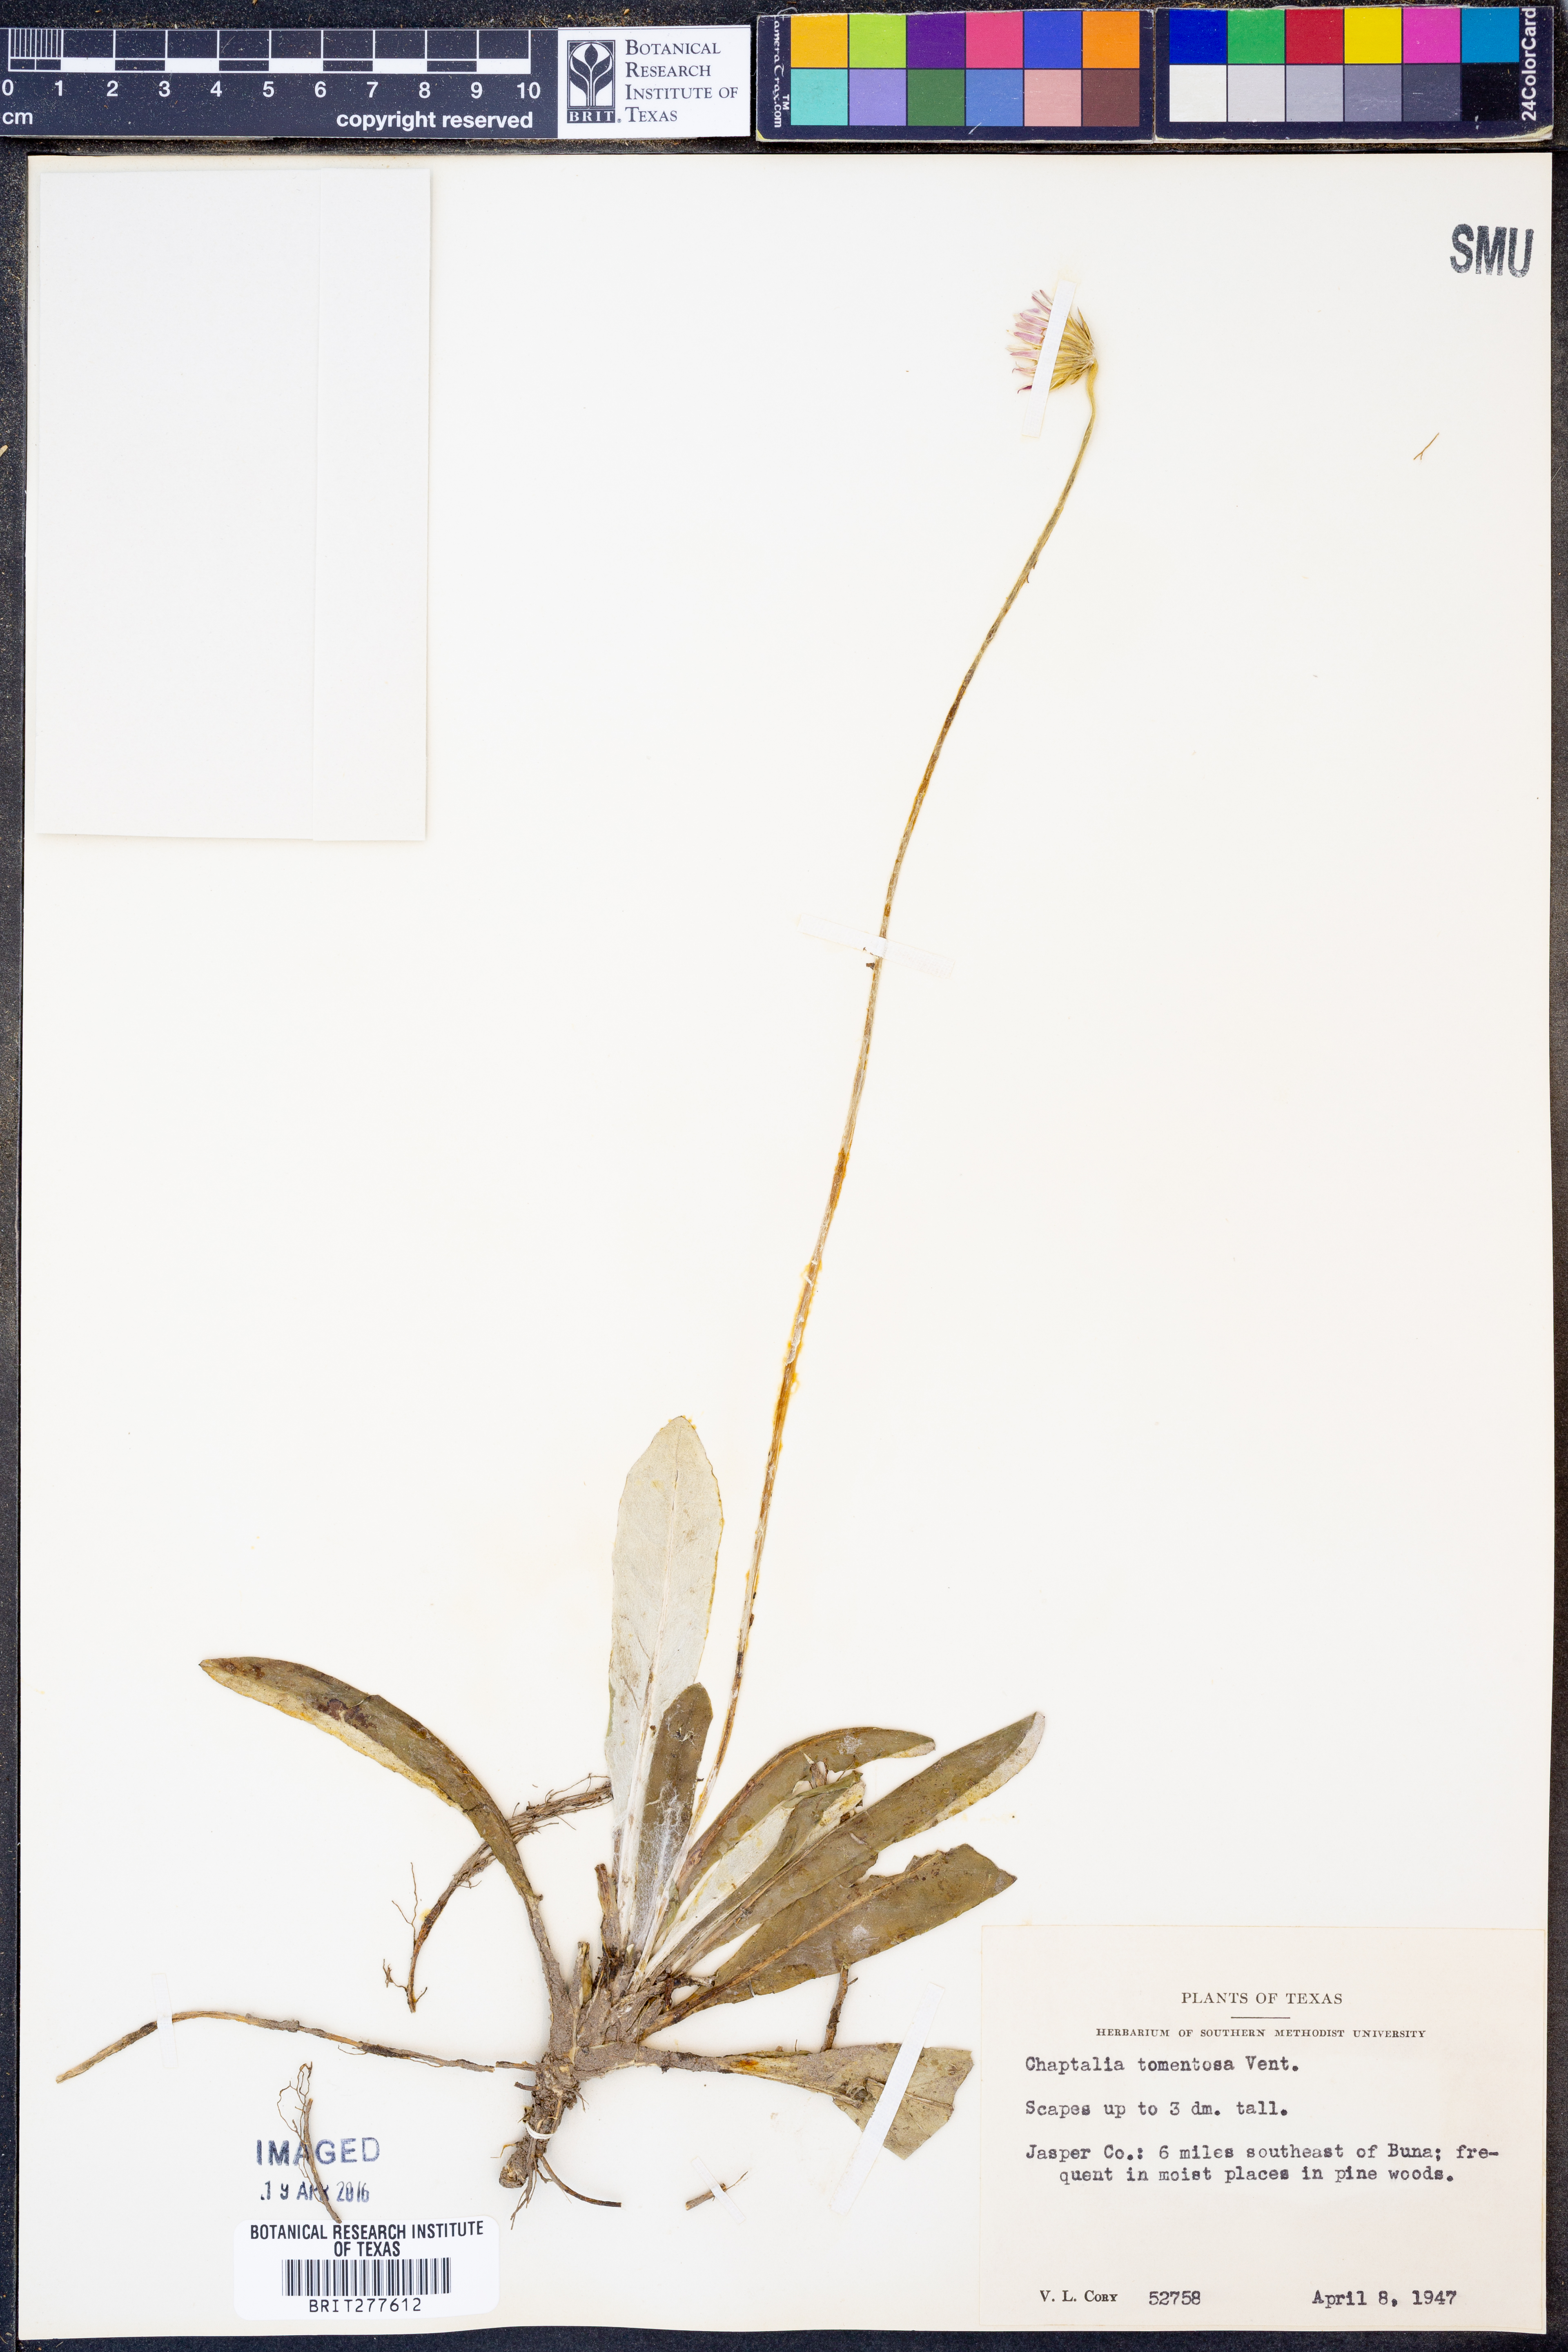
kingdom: Plantae
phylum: Tracheophyta
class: Magnoliopsida
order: Asterales
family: Asteraceae
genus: Chaptalia
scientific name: Chaptalia tomentosa
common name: Woolly sunbonnet
